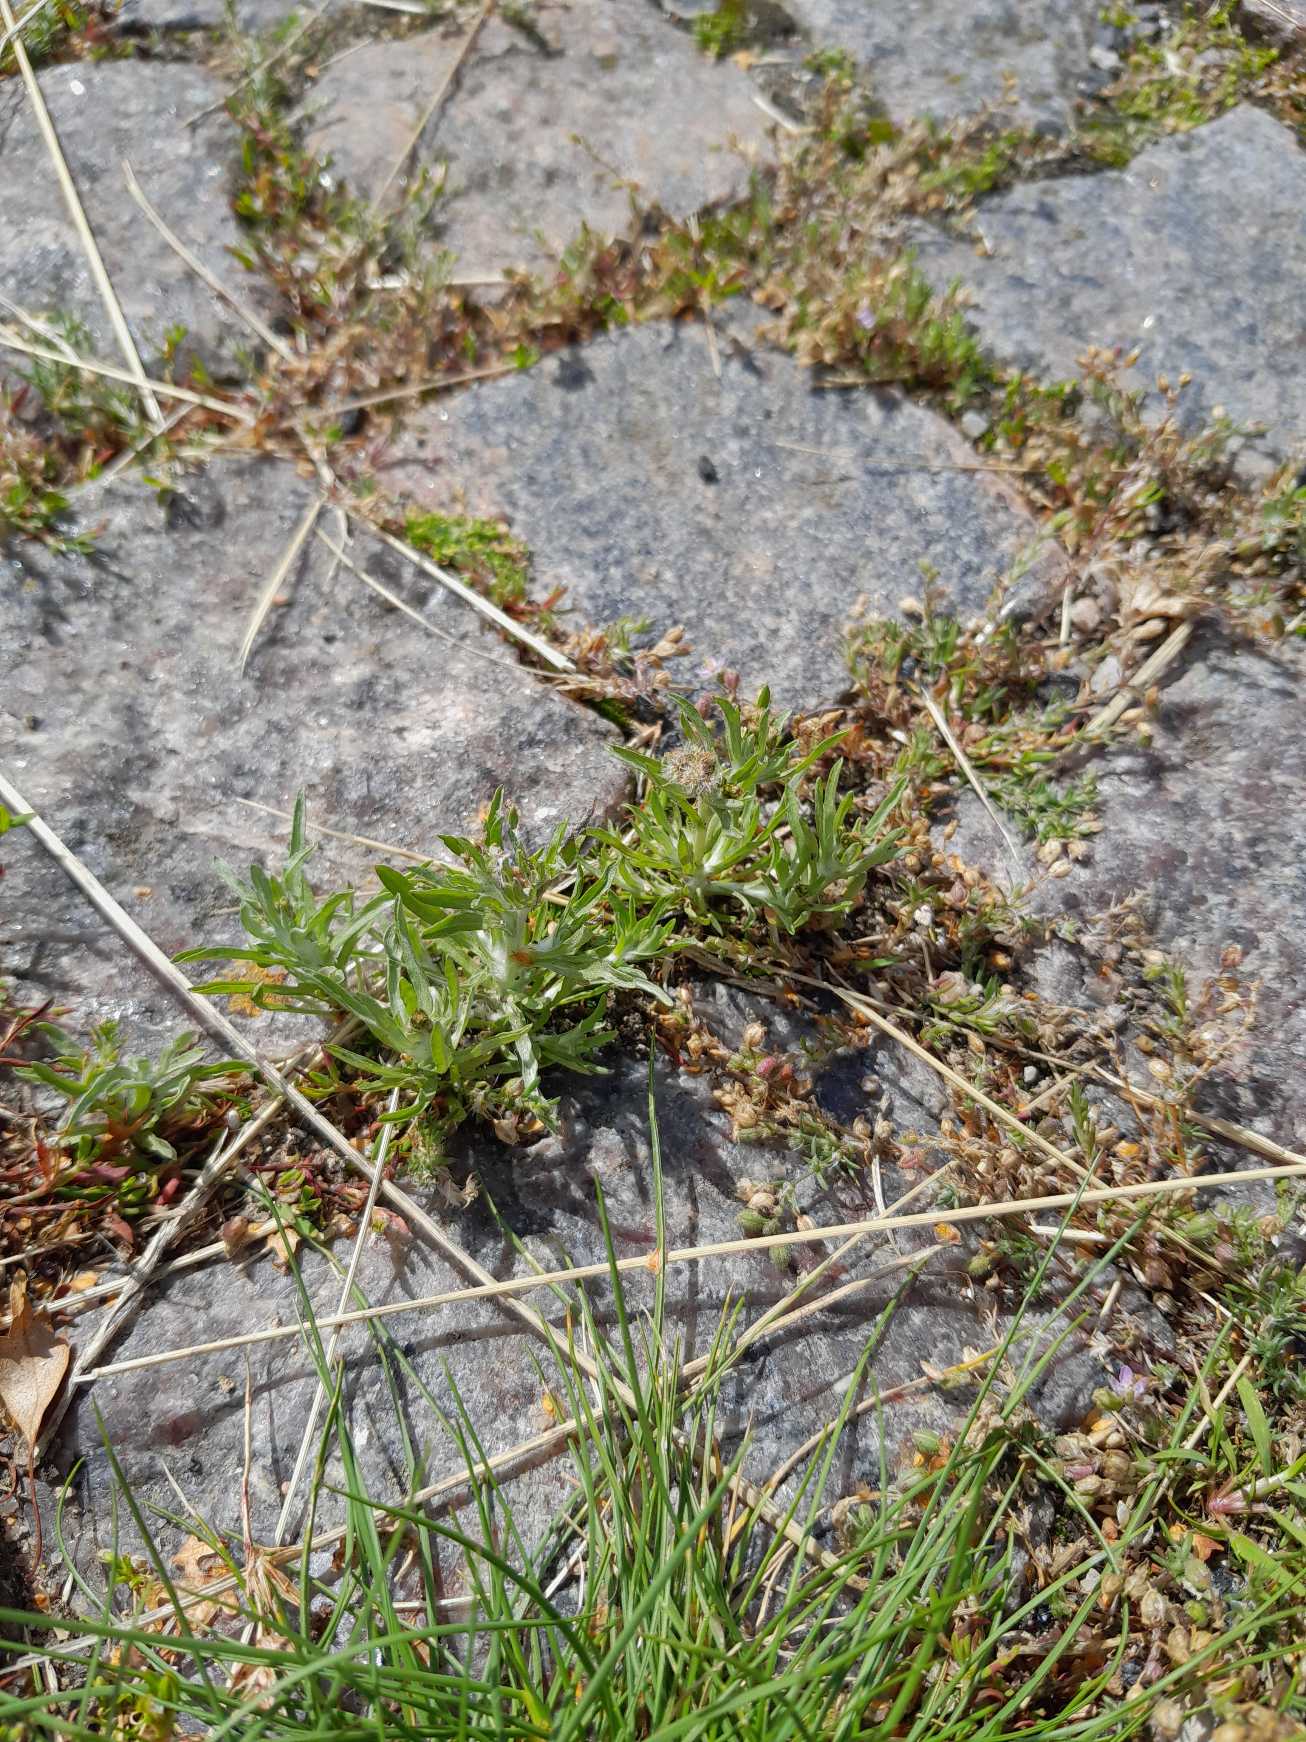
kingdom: Plantae
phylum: Tracheophyta
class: Magnoliopsida
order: Asterales
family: Asteraceae
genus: Gnaphalium
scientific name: Gnaphalium uliginosum
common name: Sump-evighedsblomst
